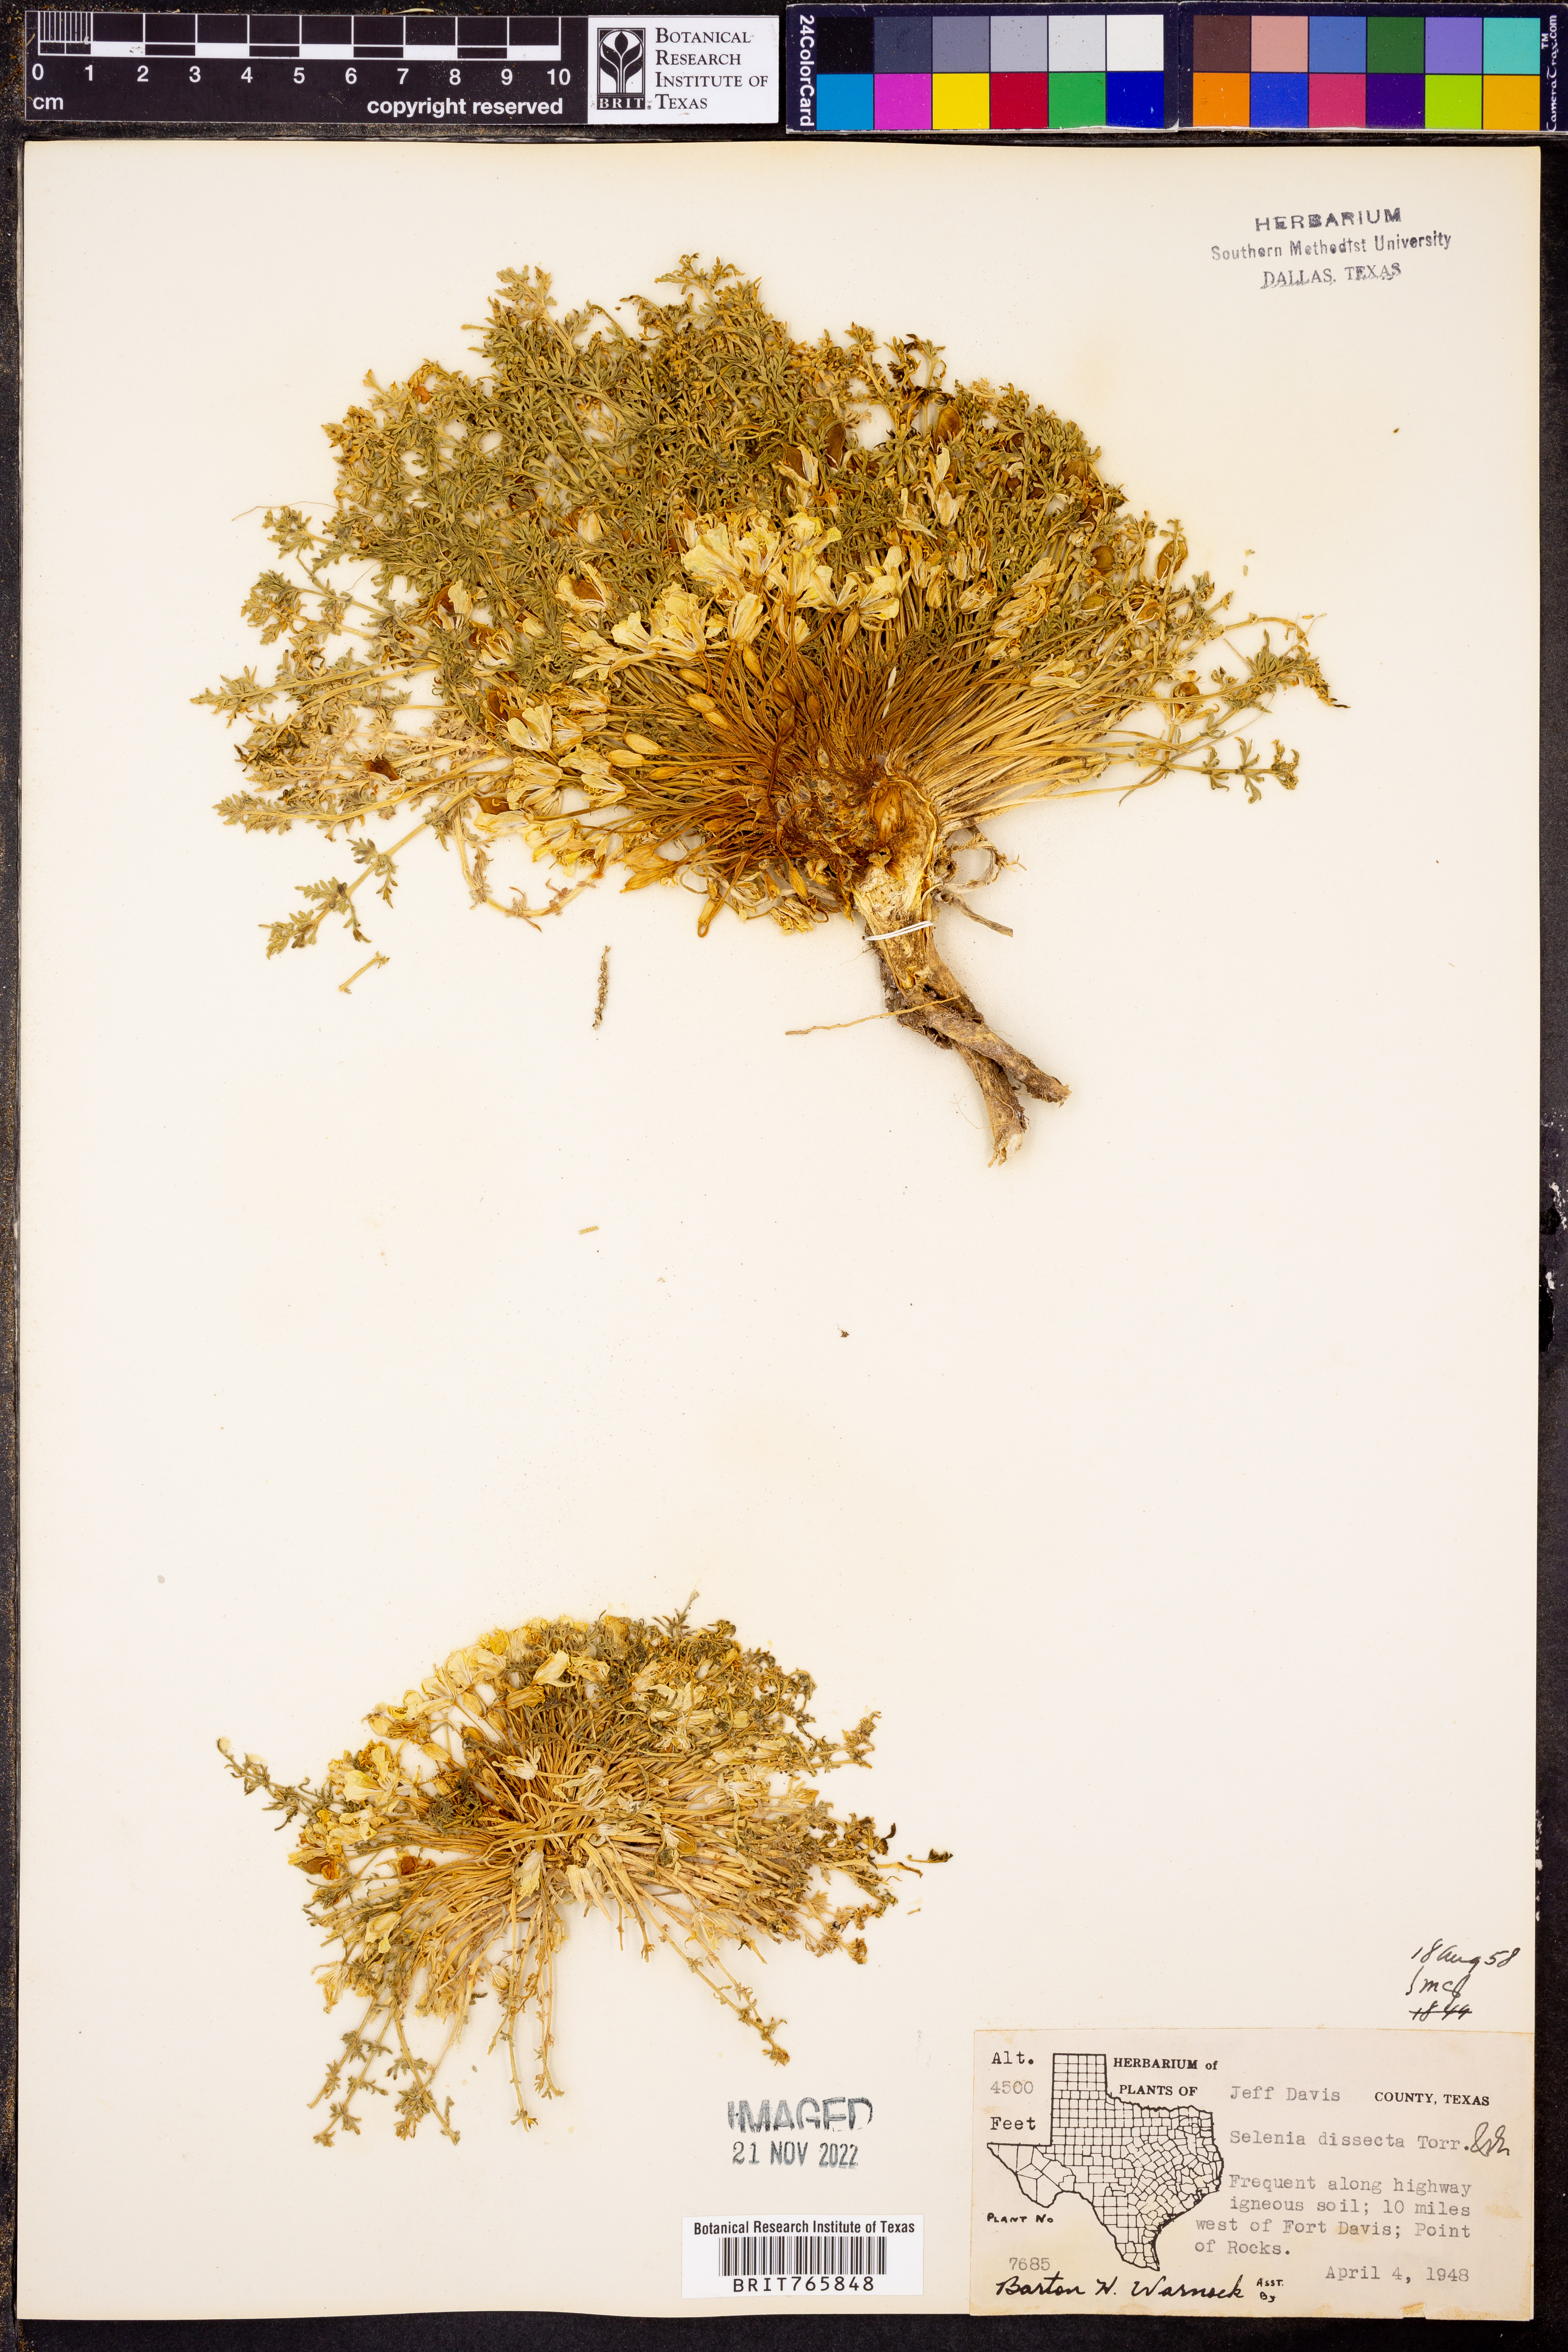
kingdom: Plantae
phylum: Tracheophyta
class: Magnoliopsida
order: Brassicales
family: Brassicaceae
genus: Selenia
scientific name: Selenia dissecta
